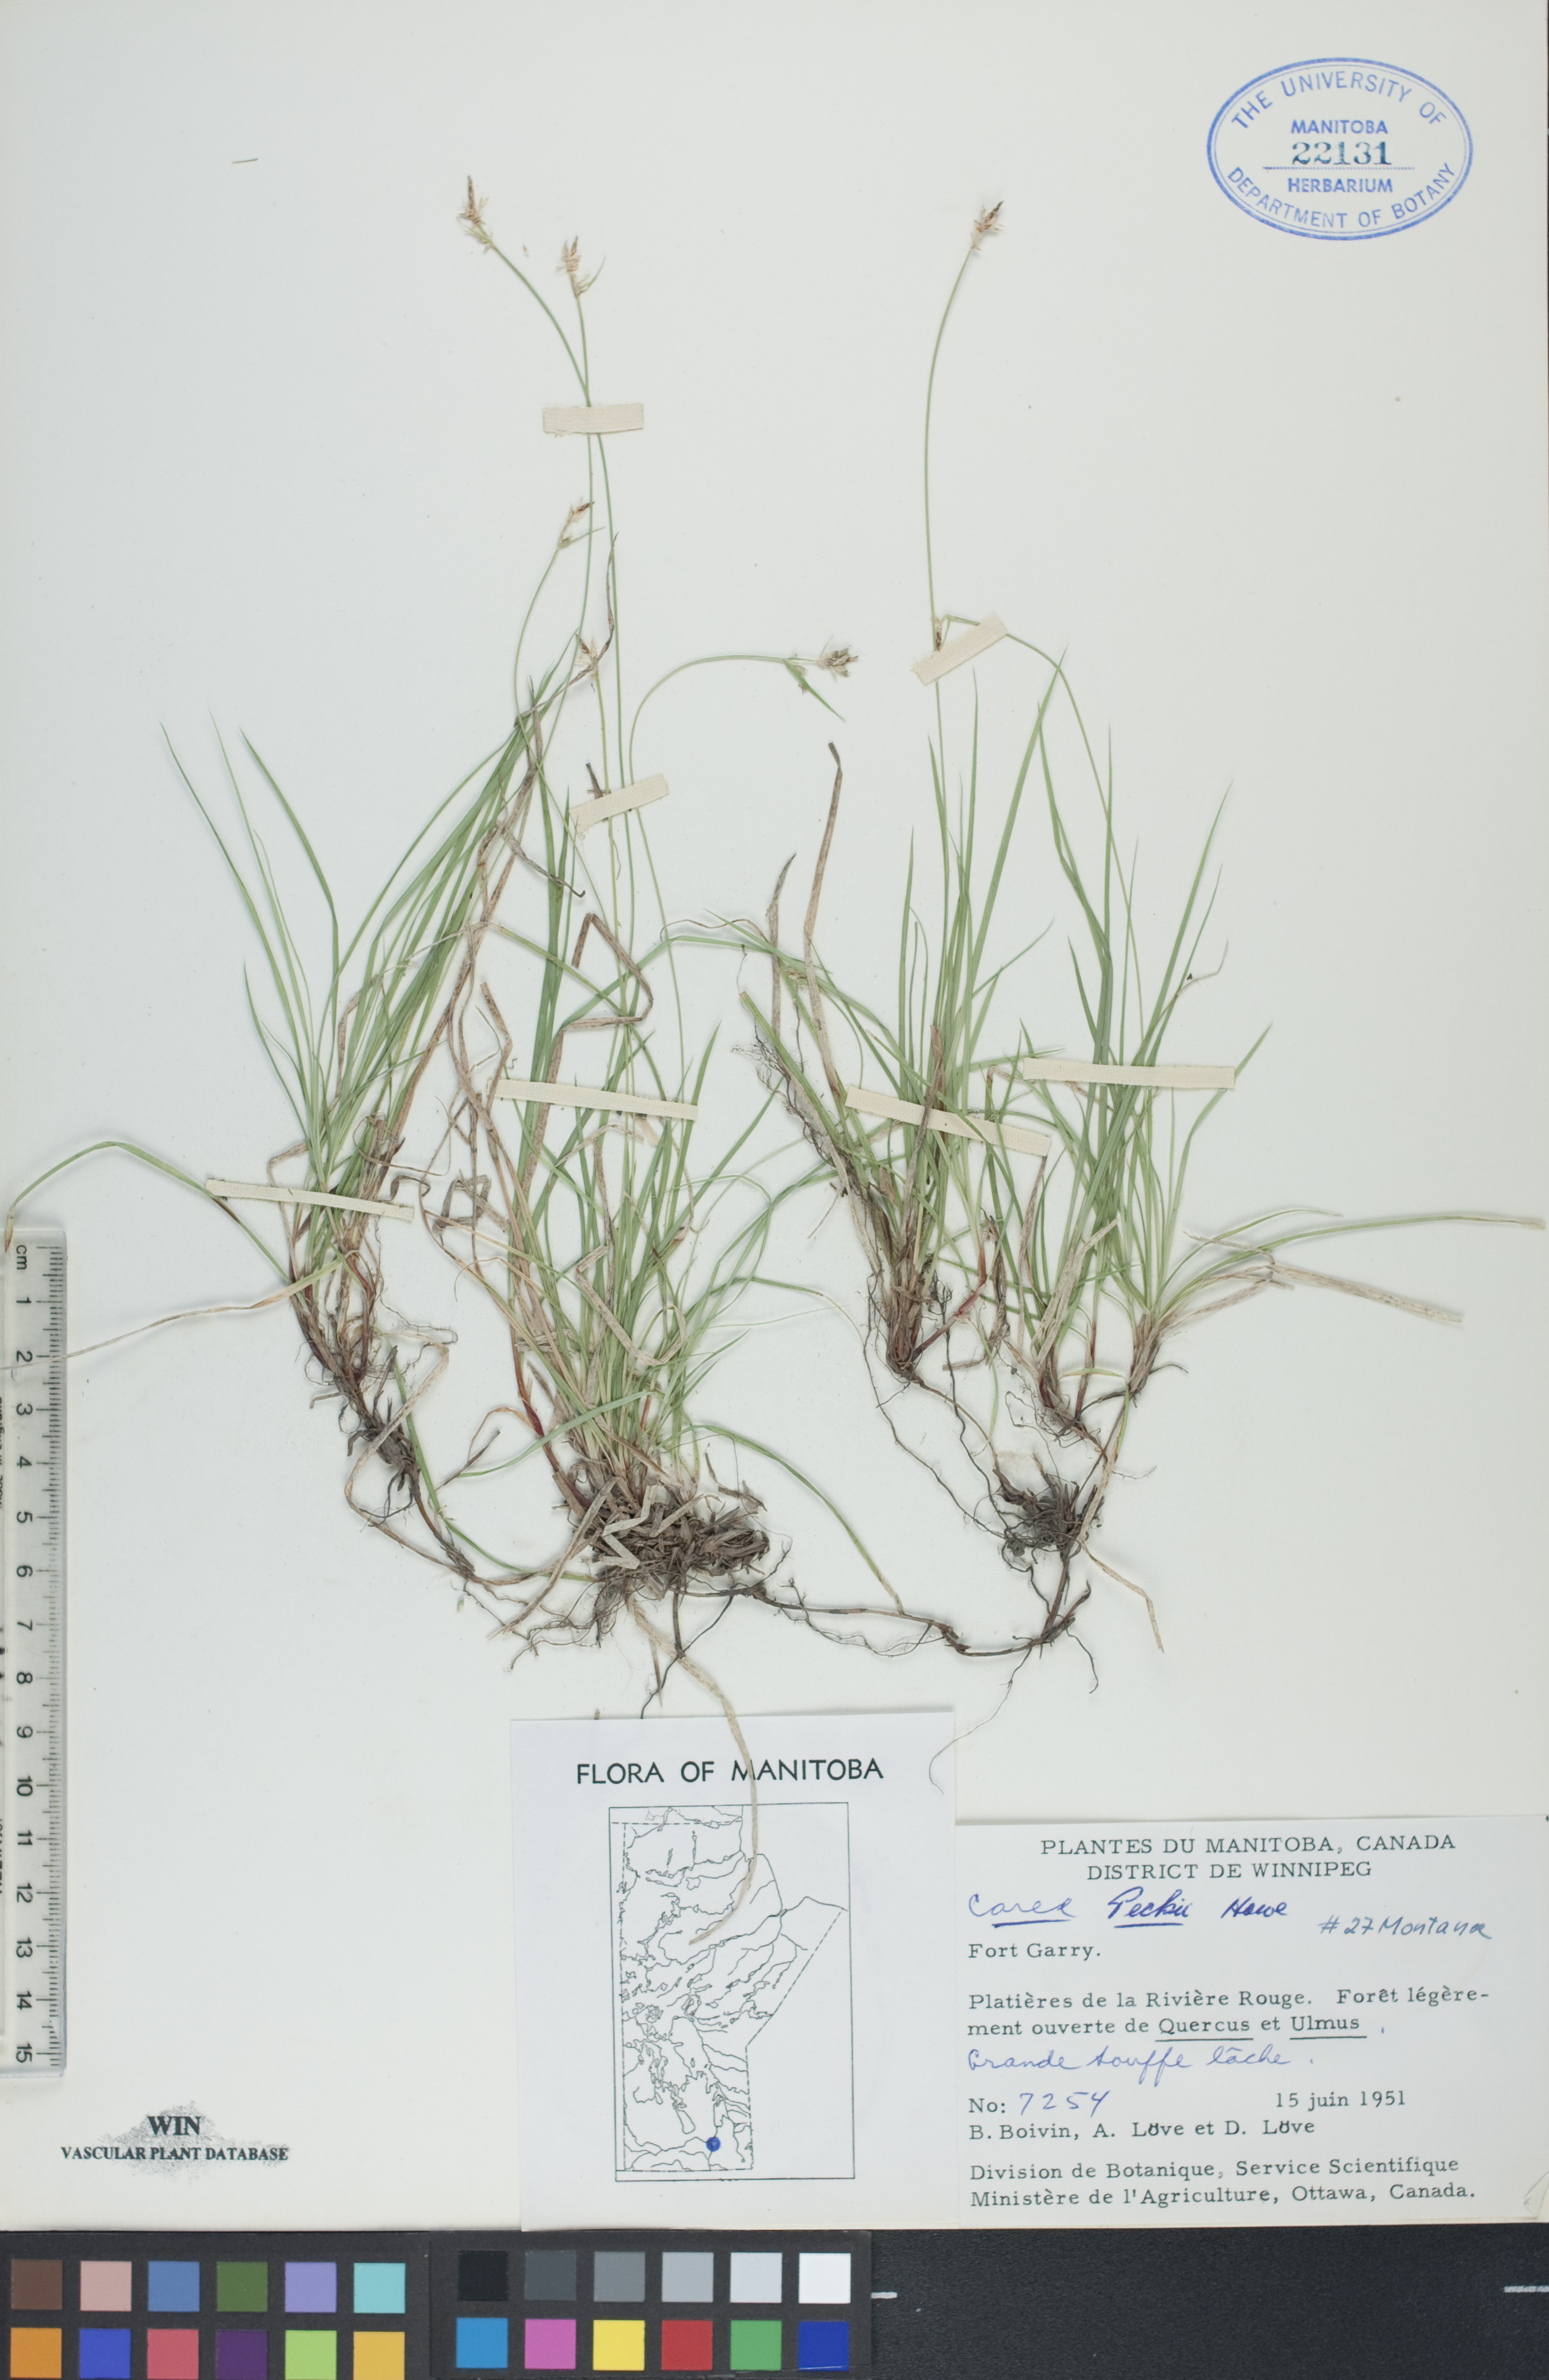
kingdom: Plantae
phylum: Tracheophyta
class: Liliopsida
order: Poales
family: Cyperaceae
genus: Carex
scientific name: Carex peckii
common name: Peck's oak sedge
